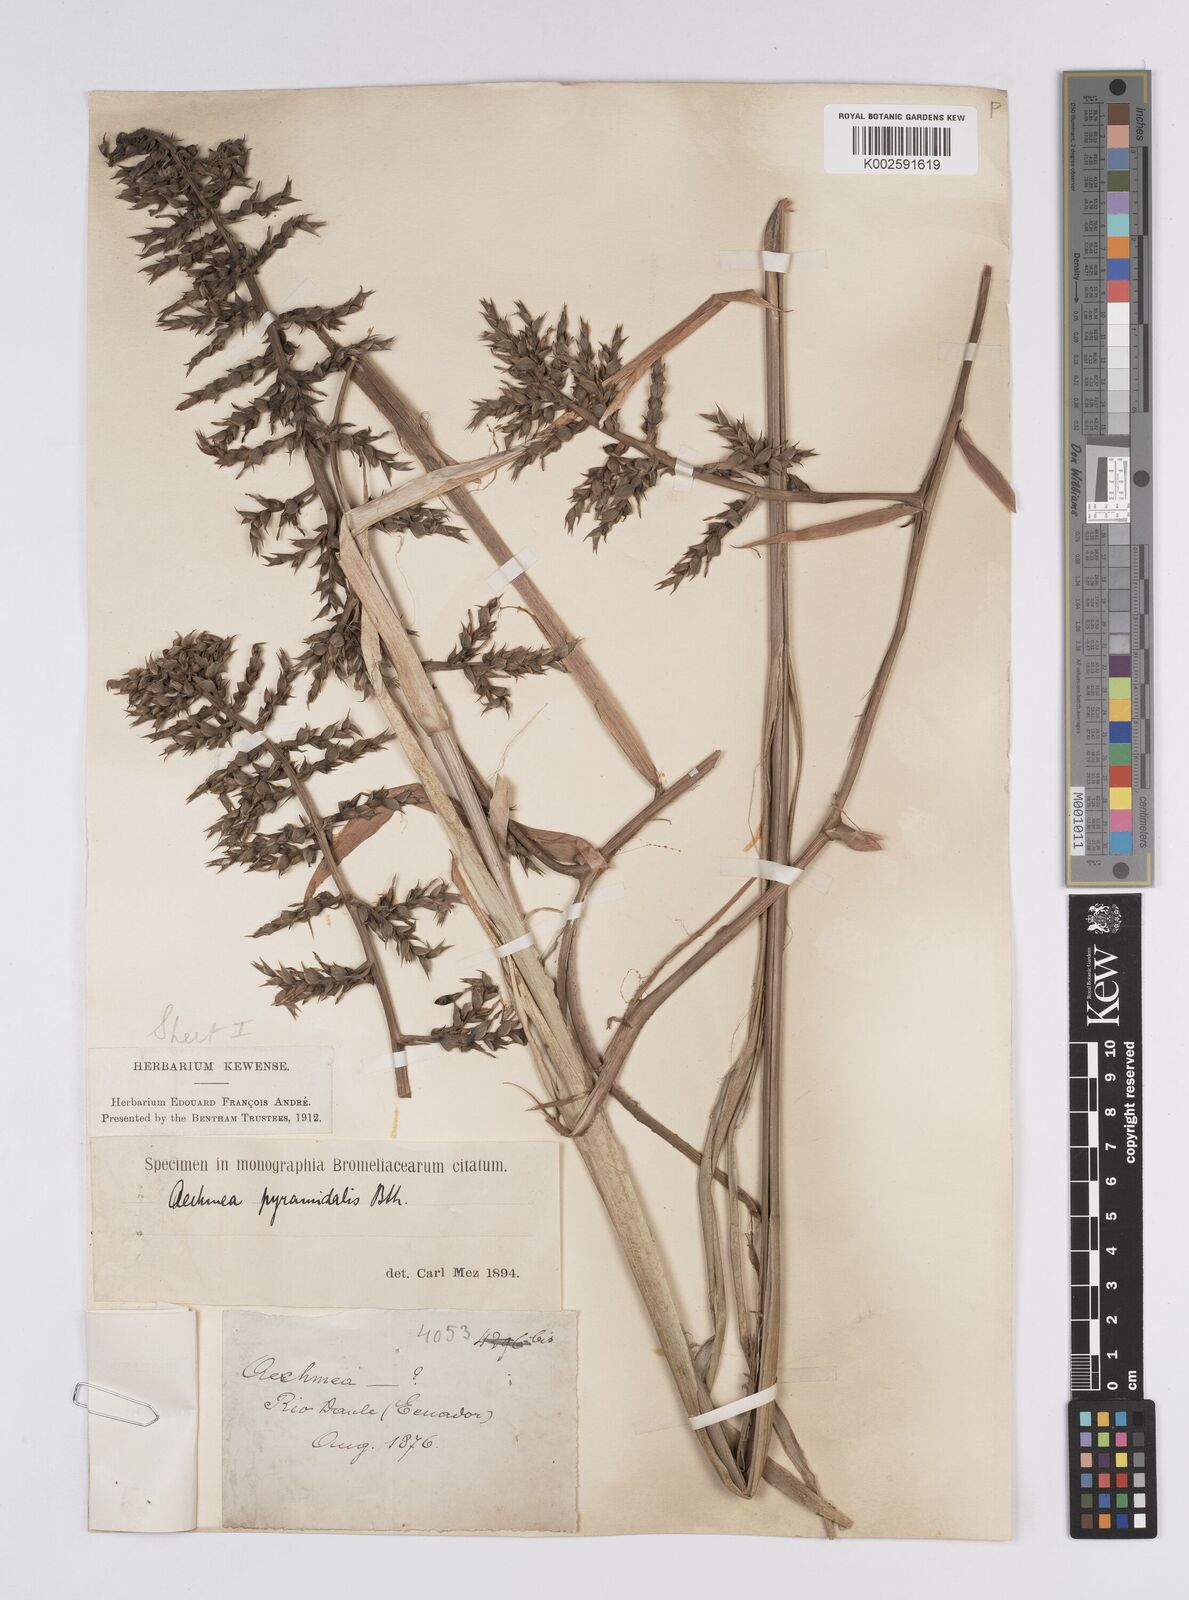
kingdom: Plantae
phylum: Tracheophyta
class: Liliopsida
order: Poales
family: Bromeliaceae
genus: Aechmea
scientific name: Aechmea pyramidalis
